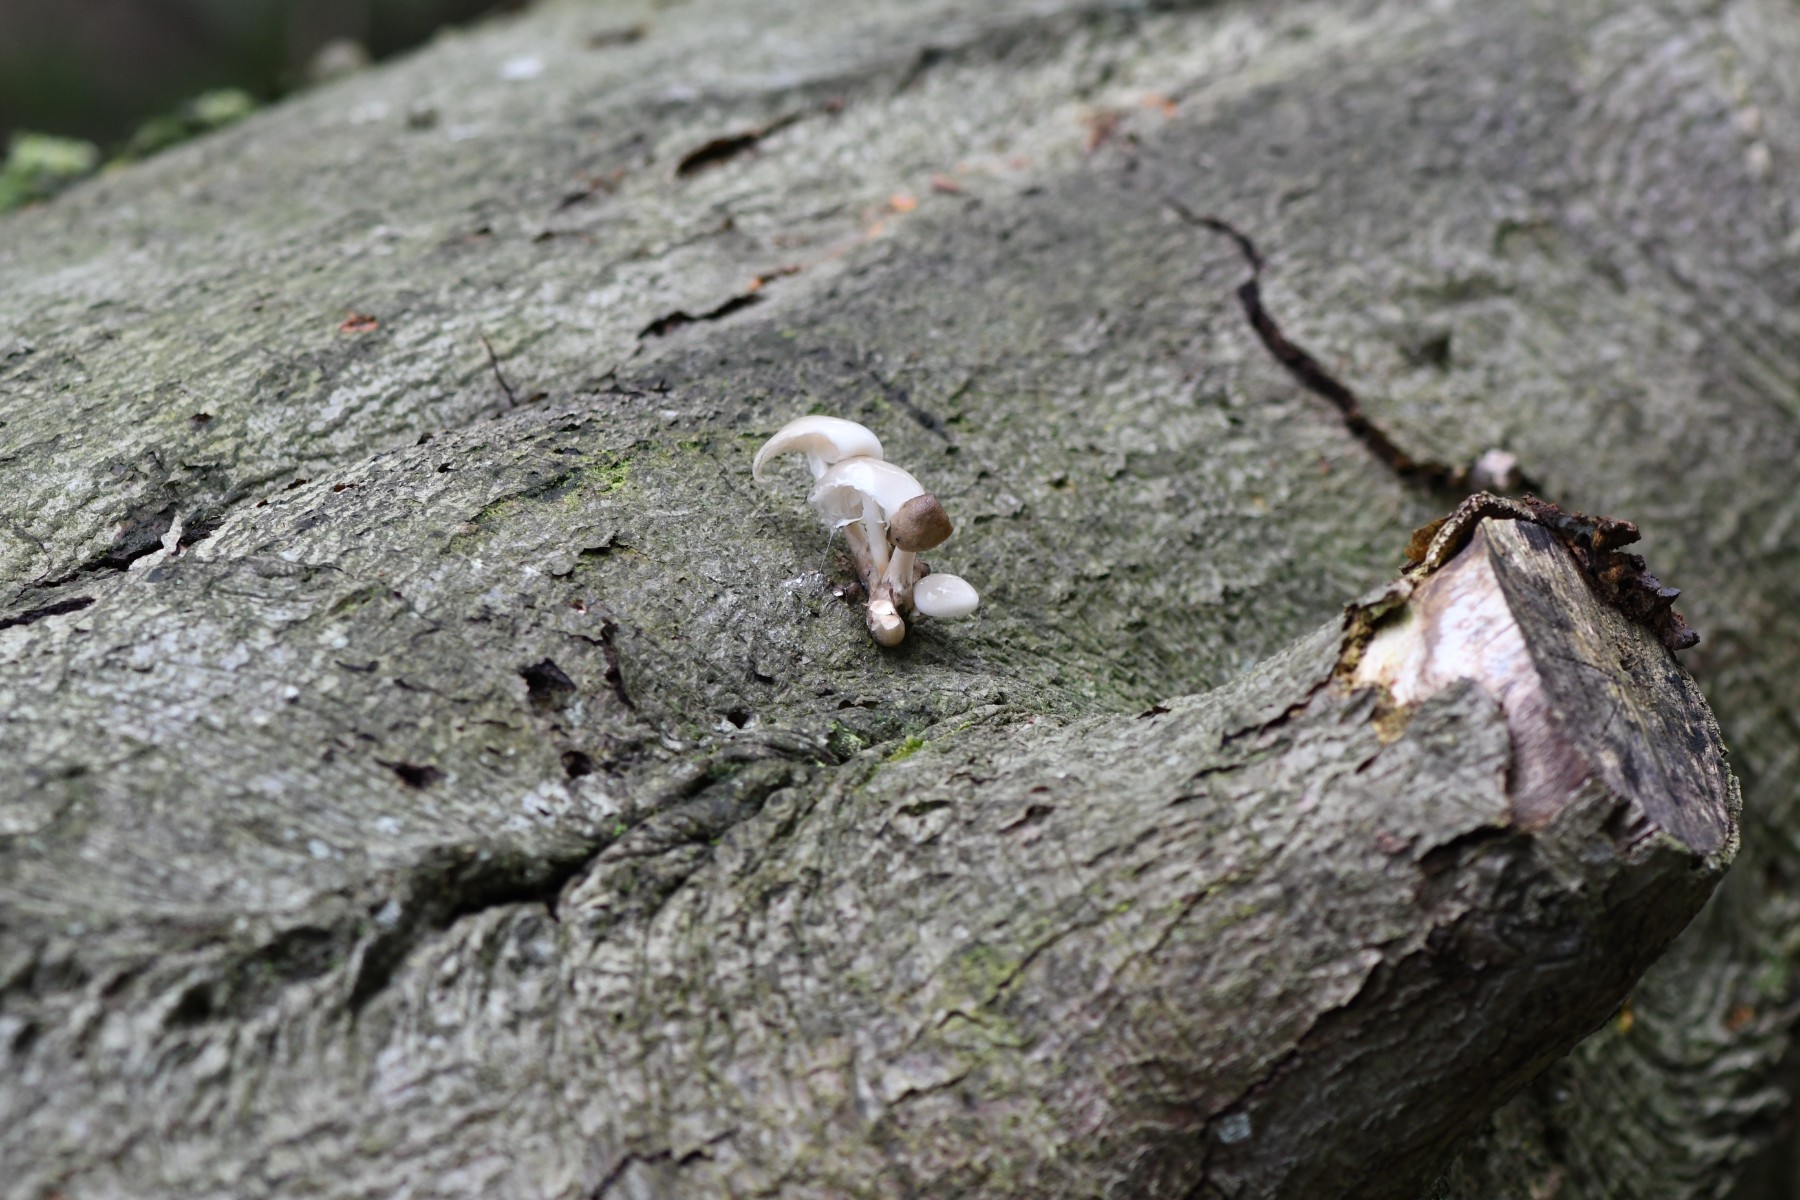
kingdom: Fungi
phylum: Basidiomycota
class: Agaricomycetes
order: Agaricales
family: Physalacriaceae
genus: Mucidula
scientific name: Mucidula mucida
